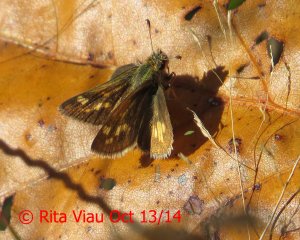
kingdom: Animalia
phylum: Arthropoda
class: Insecta
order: Lepidoptera
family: Hesperiidae
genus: Polites
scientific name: Polites coras
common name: Peck's Skipper
